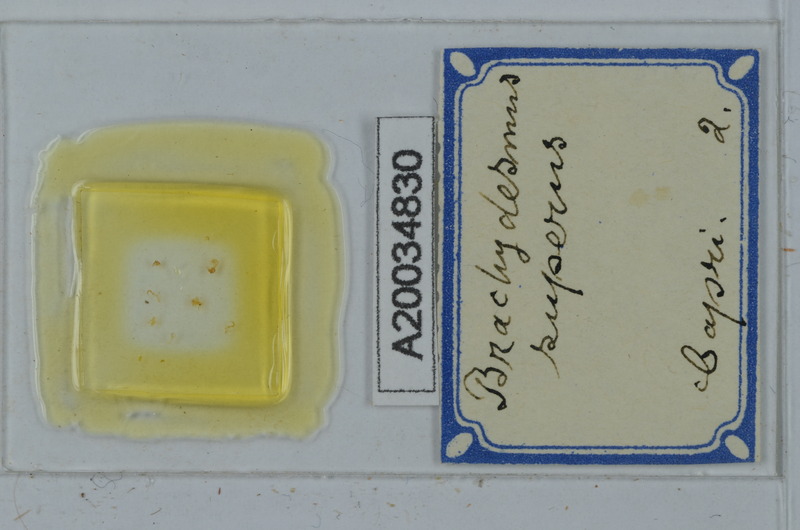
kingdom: Animalia
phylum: Arthropoda
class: Diplopoda
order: Polydesmida
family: Polydesmidae
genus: Brachydesmus
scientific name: Brachydesmus superus
